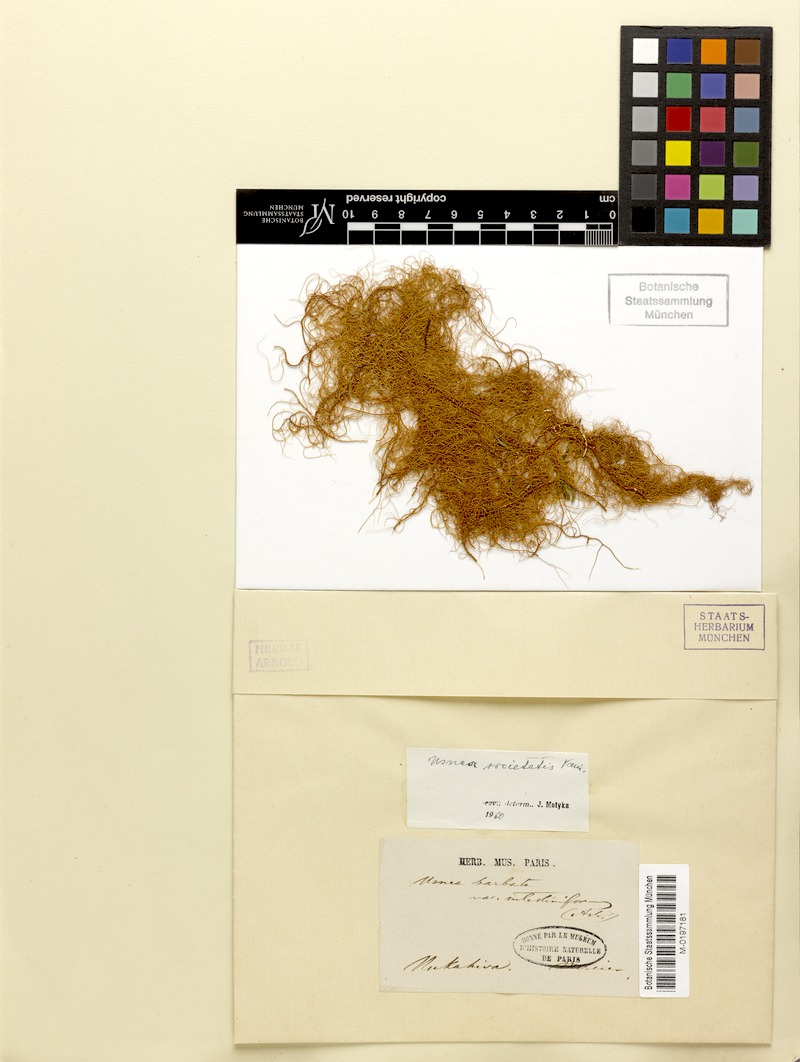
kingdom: Fungi
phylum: Ascomycota
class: Lecanoromycetes
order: Lecanorales
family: Parmeliaceae
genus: Usnea
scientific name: Usnea societatis
